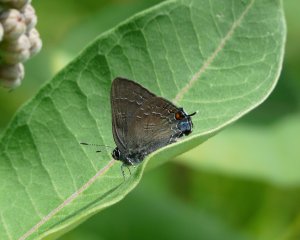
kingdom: Animalia
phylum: Arthropoda
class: Insecta
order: Lepidoptera
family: Lycaenidae
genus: Satyrium
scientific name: Satyrium calanus
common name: Banded Hairstreak
